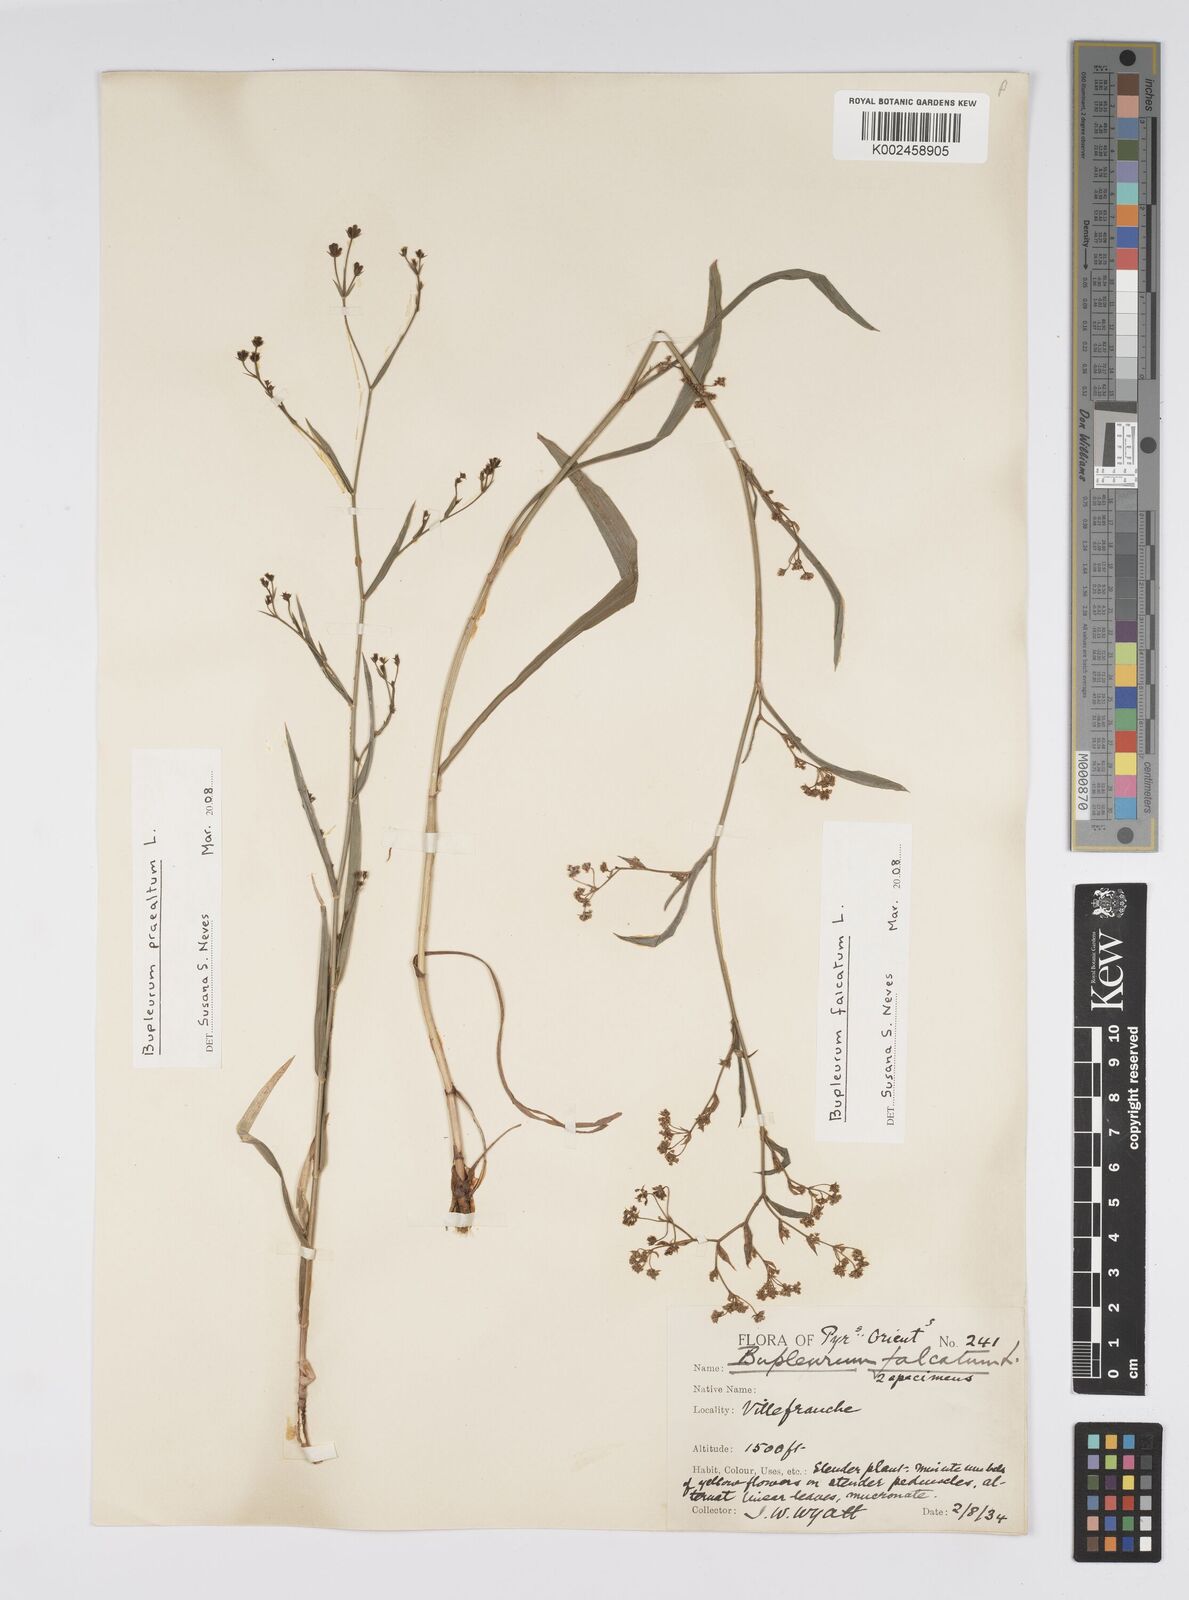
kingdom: Plantae
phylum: Tracheophyta
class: Magnoliopsida
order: Apiales
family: Apiaceae
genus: Bupleurum
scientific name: Bupleurum falcatum
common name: Sickle-leaved hare's-ear
